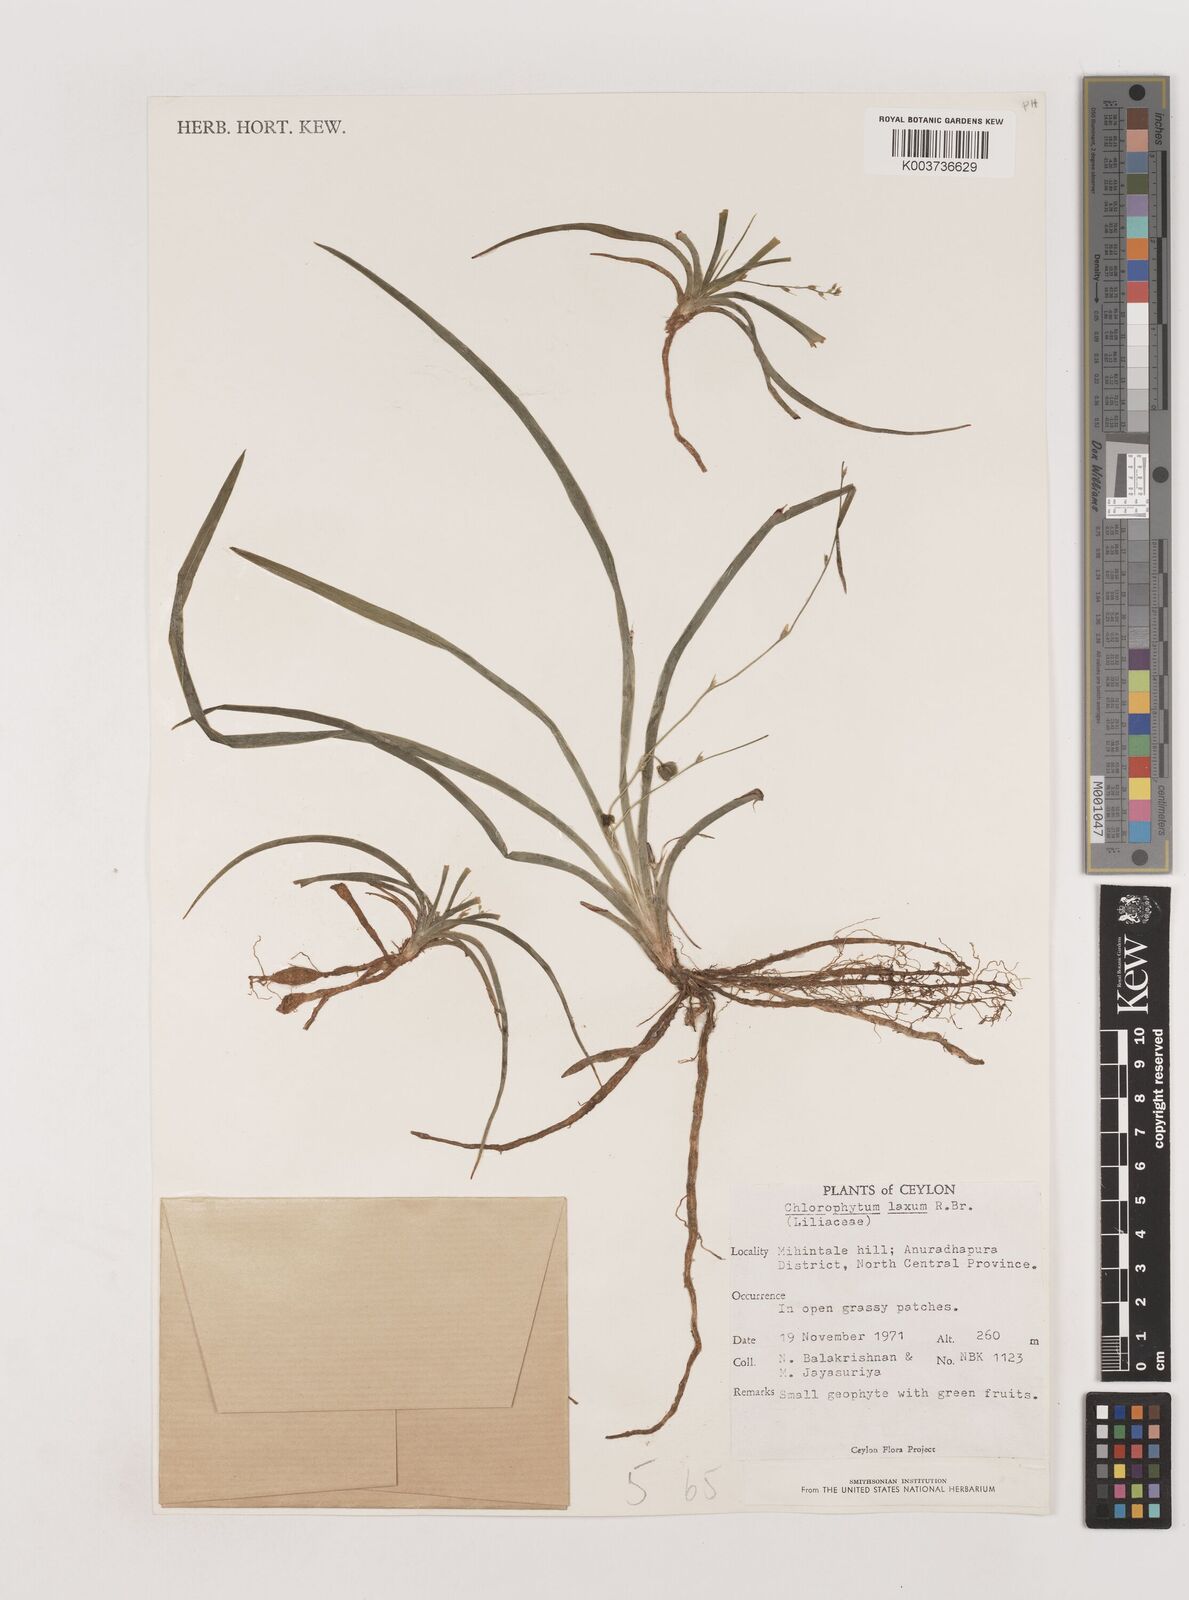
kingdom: Plantae
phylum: Tracheophyta
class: Liliopsida
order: Asparagales
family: Asparagaceae
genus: Chlorophytum
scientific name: Chlorophytum laxum
